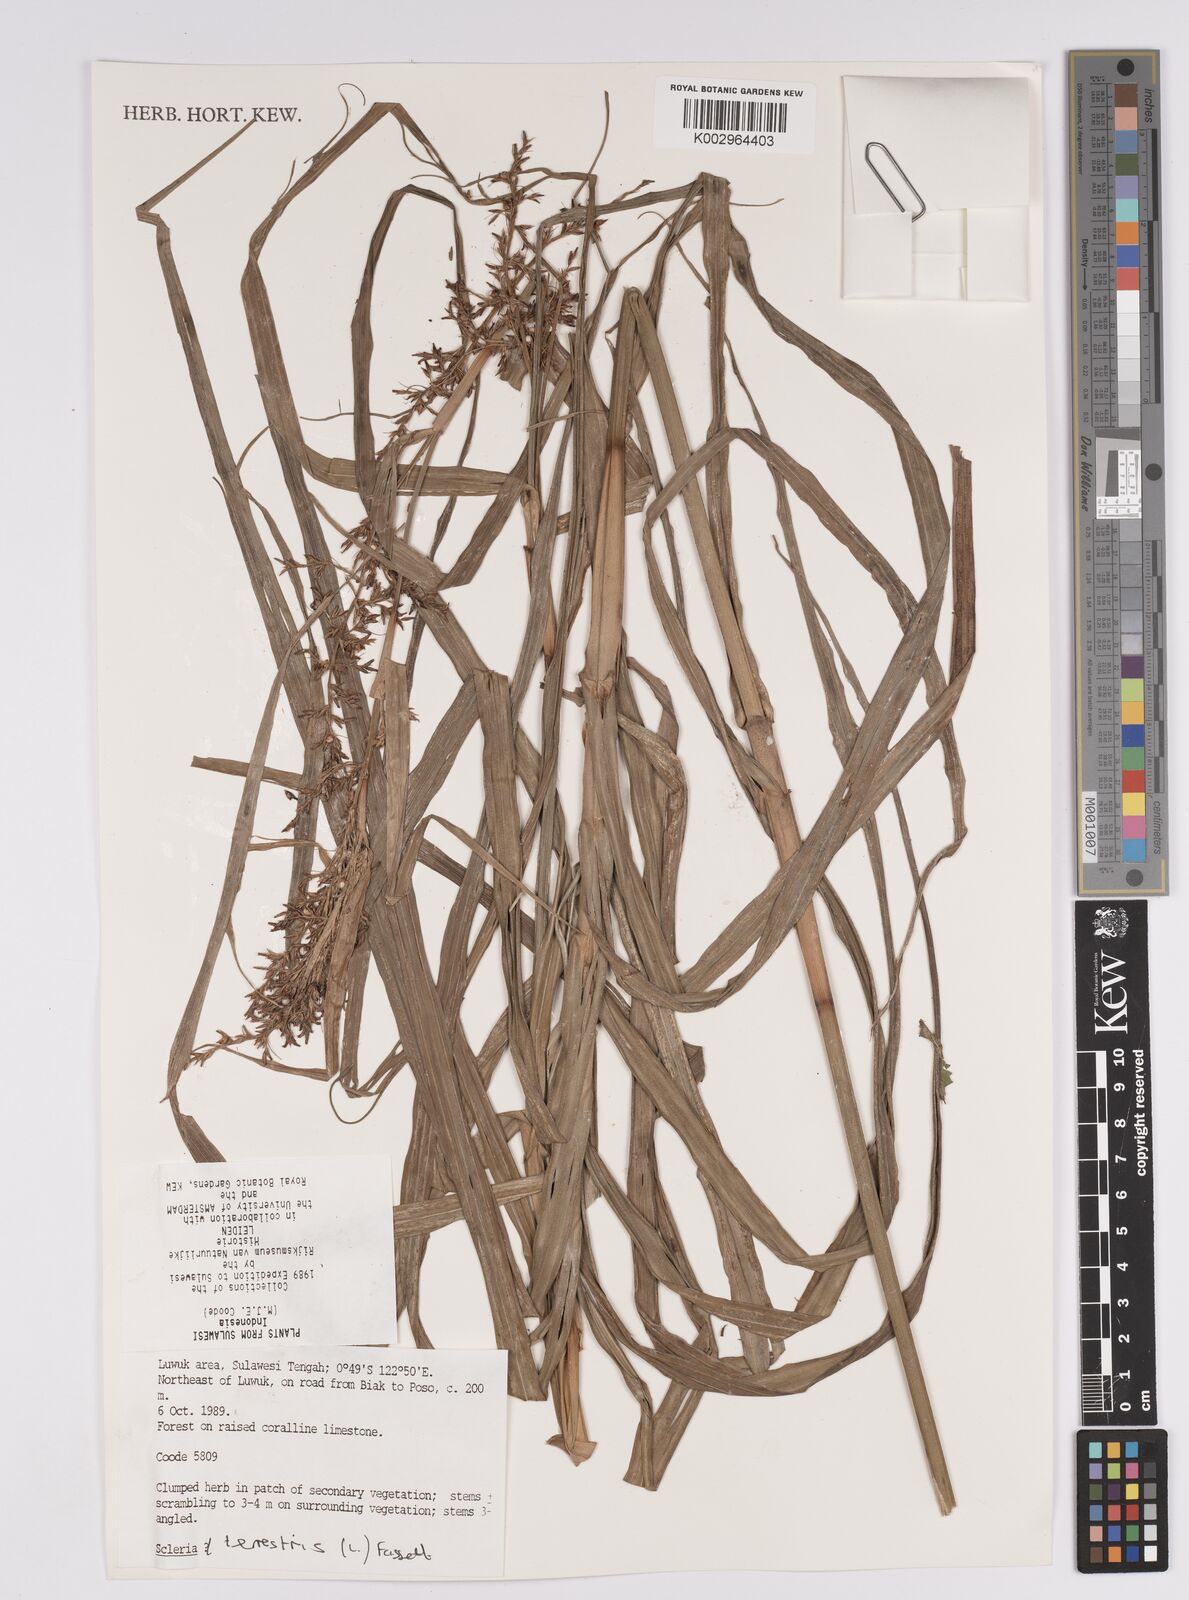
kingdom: Plantae
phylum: Tracheophyta
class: Liliopsida
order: Poales
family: Cyperaceae
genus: Scleria
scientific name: Scleria terrestris
